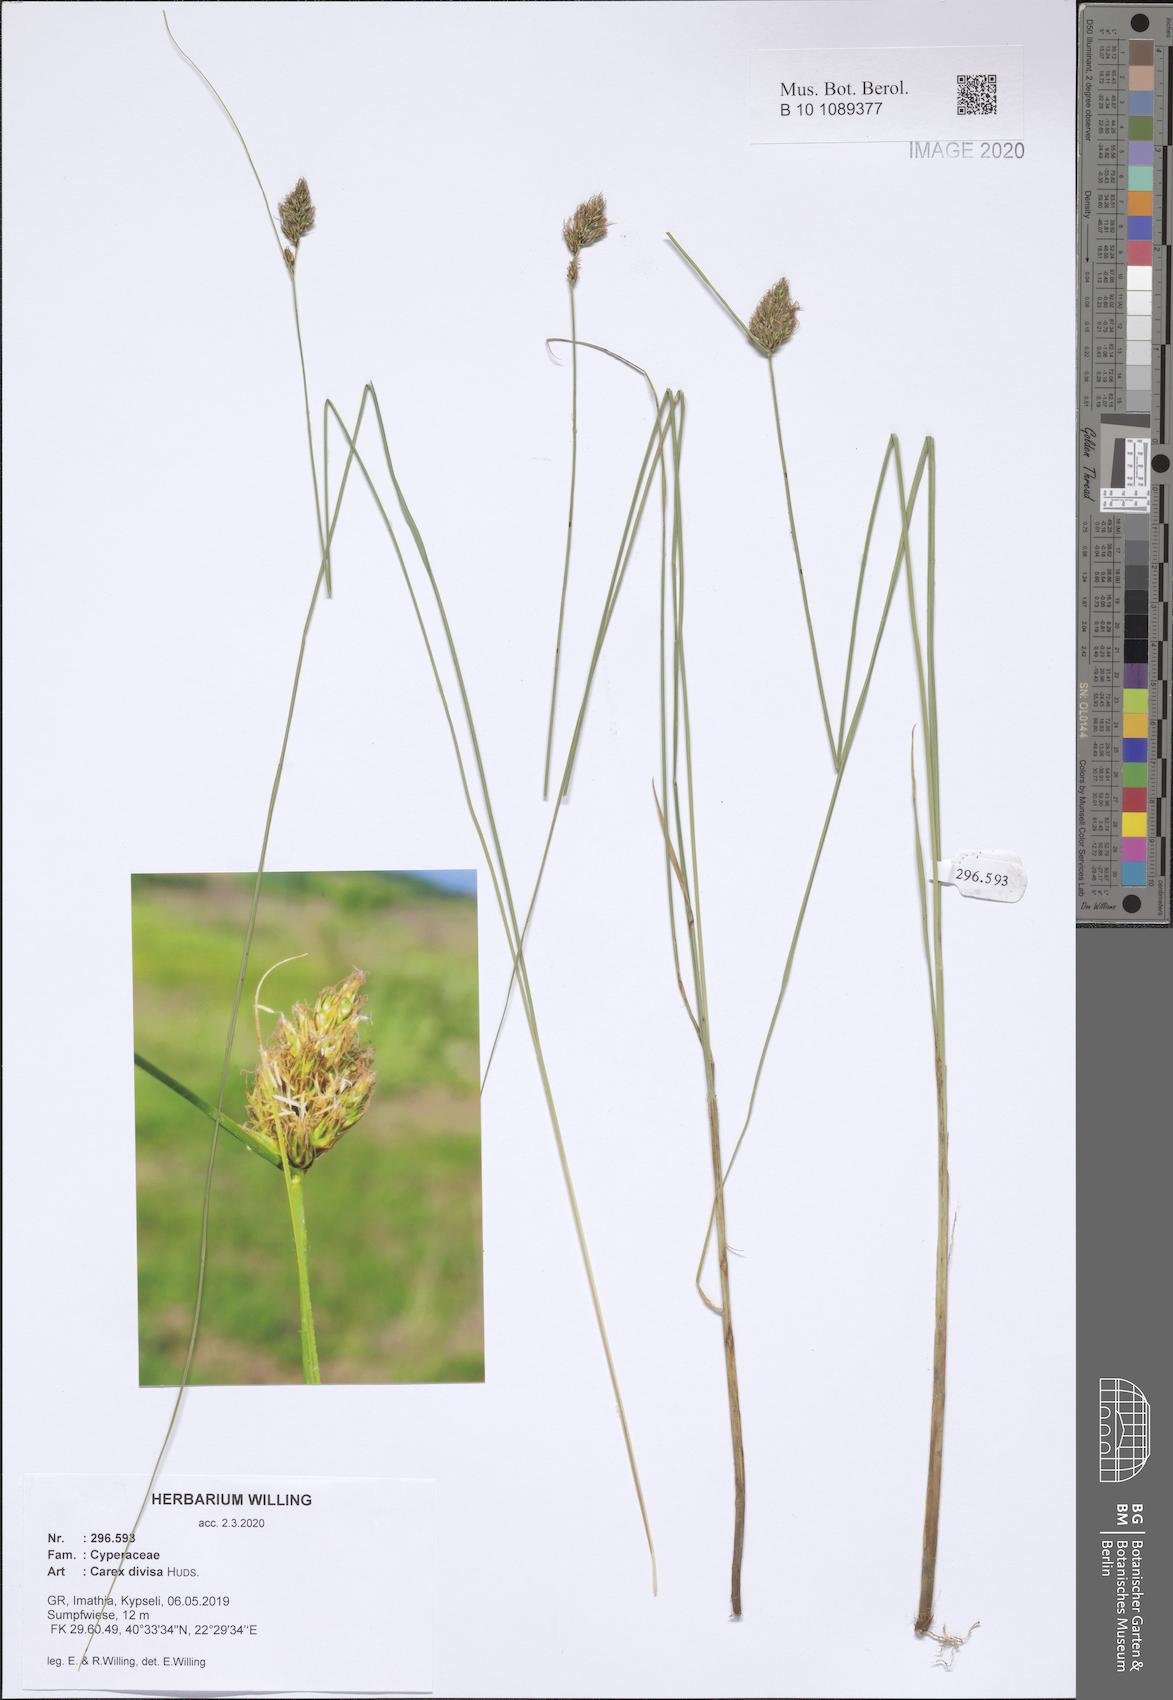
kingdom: Plantae
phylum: Tracheophyta
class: Liliopsida
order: Poales
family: Cyperaceae
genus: Carex
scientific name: Carex divisa
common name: Divided sedge
